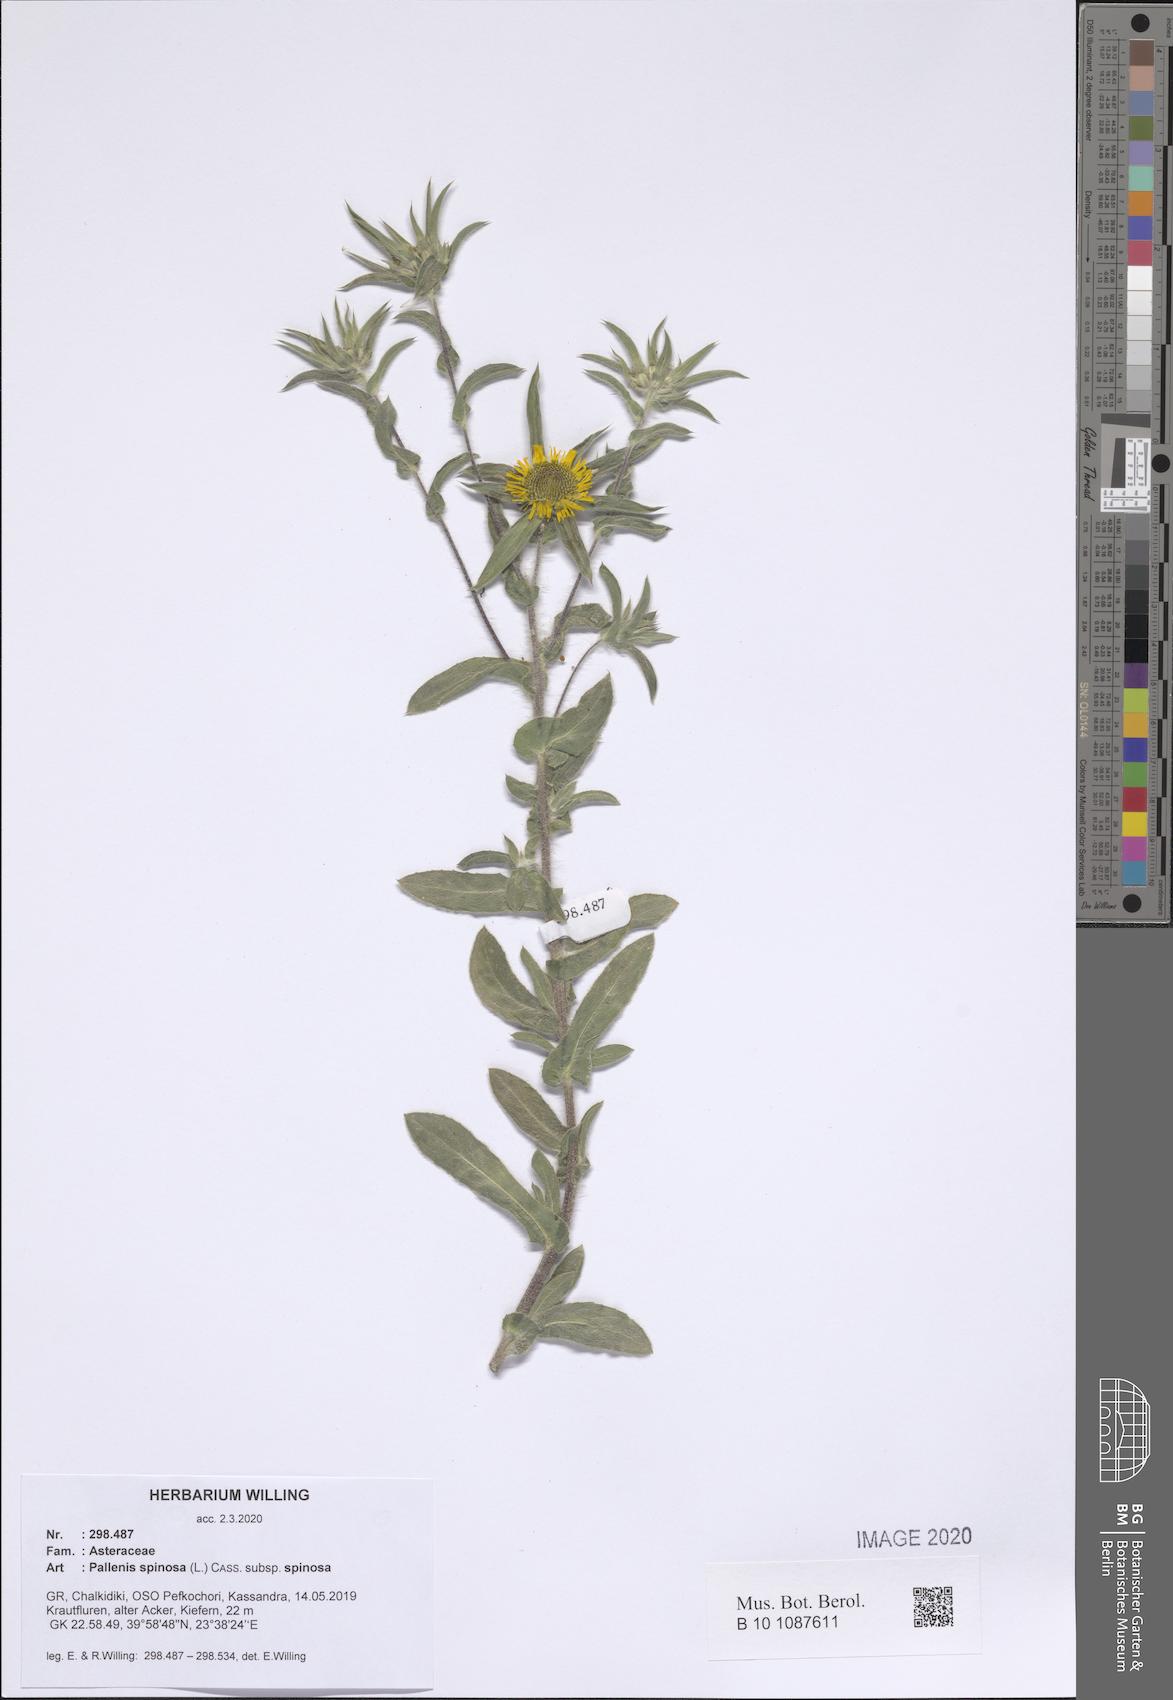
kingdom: Plantae
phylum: Tracheophyta
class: Magnoliopsida
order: Asterales
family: Asteraceae
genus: Pallenis
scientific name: Pallenis spinosa
